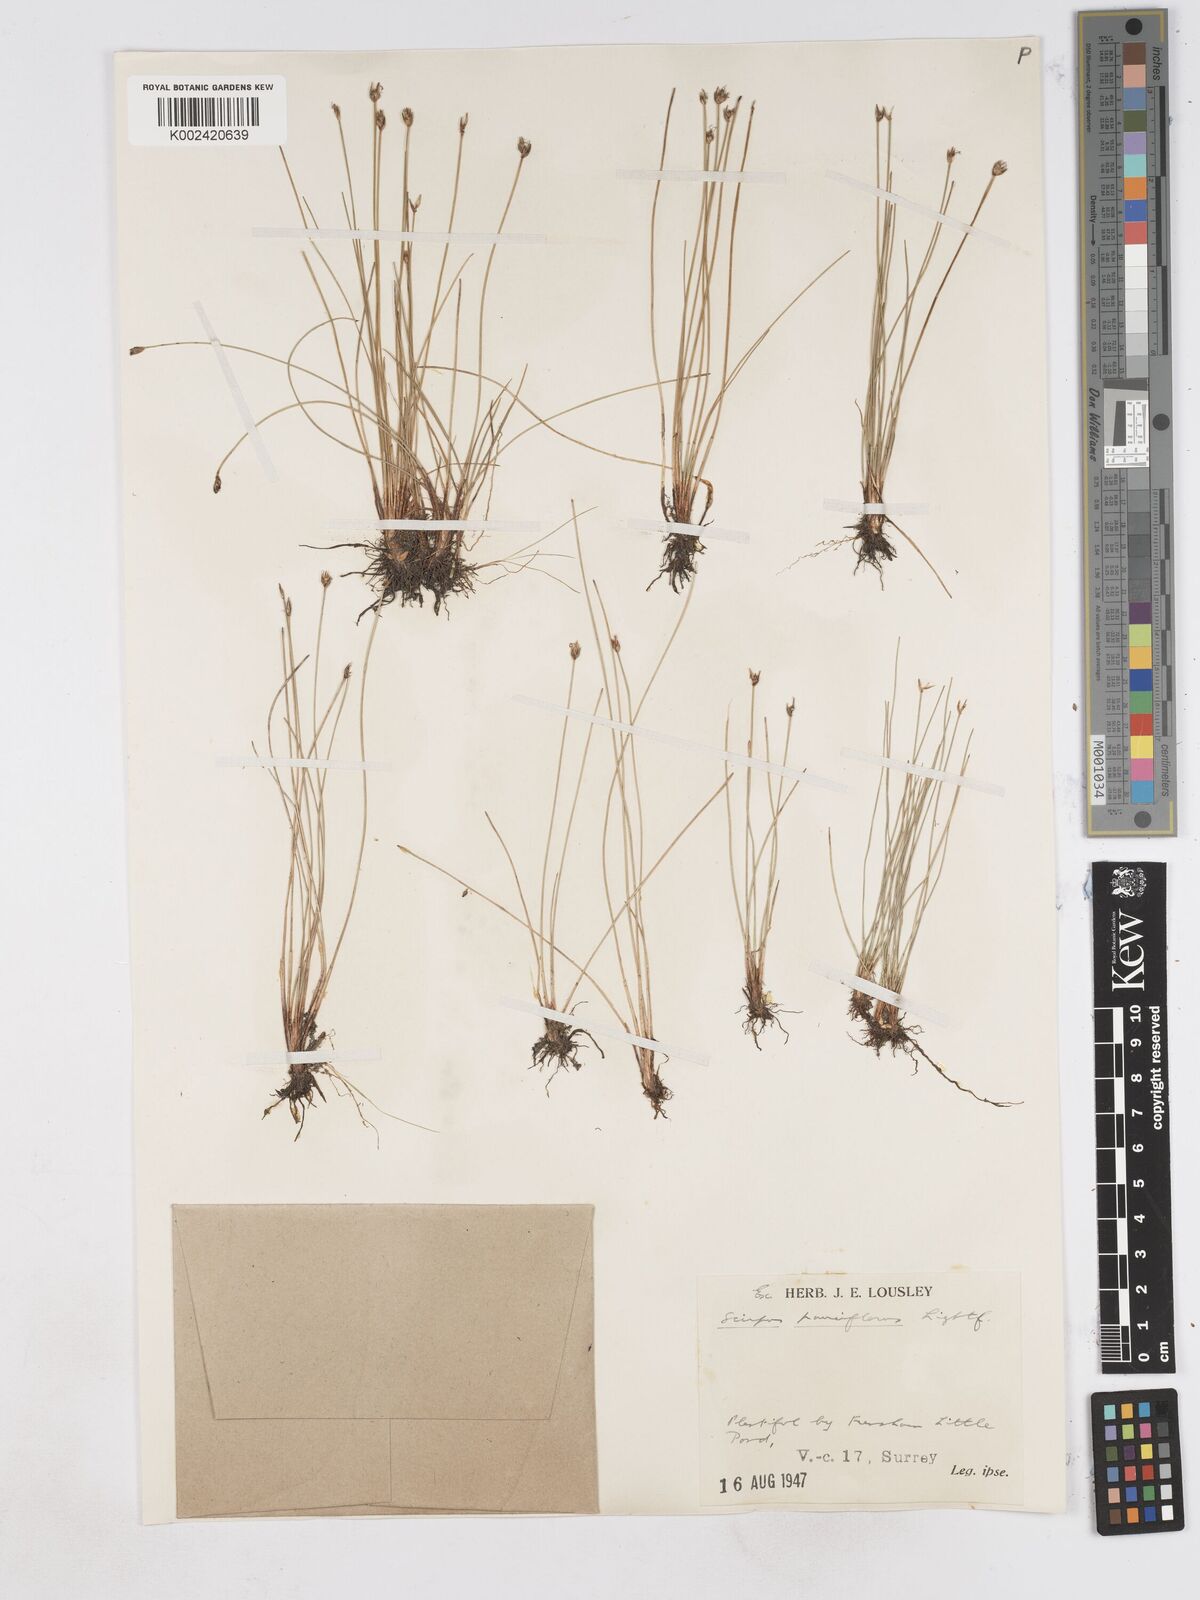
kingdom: Plantae
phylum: Tracheophyta
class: Liliopsida
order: Poales
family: Cyperaceae
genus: Eleocharis
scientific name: Eleocharis quinqueflora
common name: Few-flowered spike-rush
